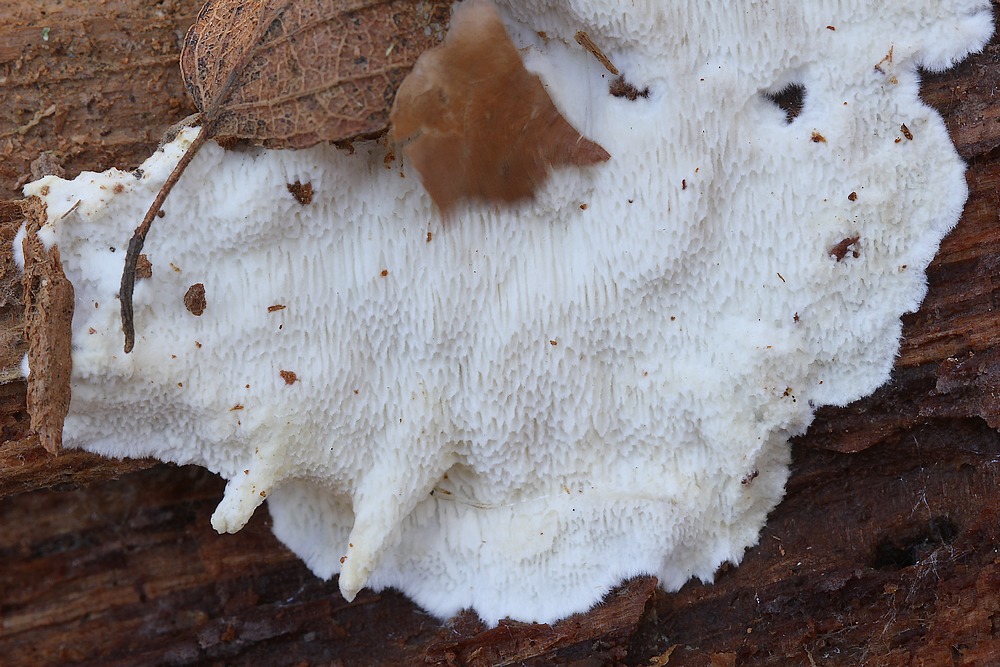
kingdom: Fungi
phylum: Basidiomycota
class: Agaricomycetes
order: Polyporales
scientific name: Polyporales
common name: poresvampordenen
